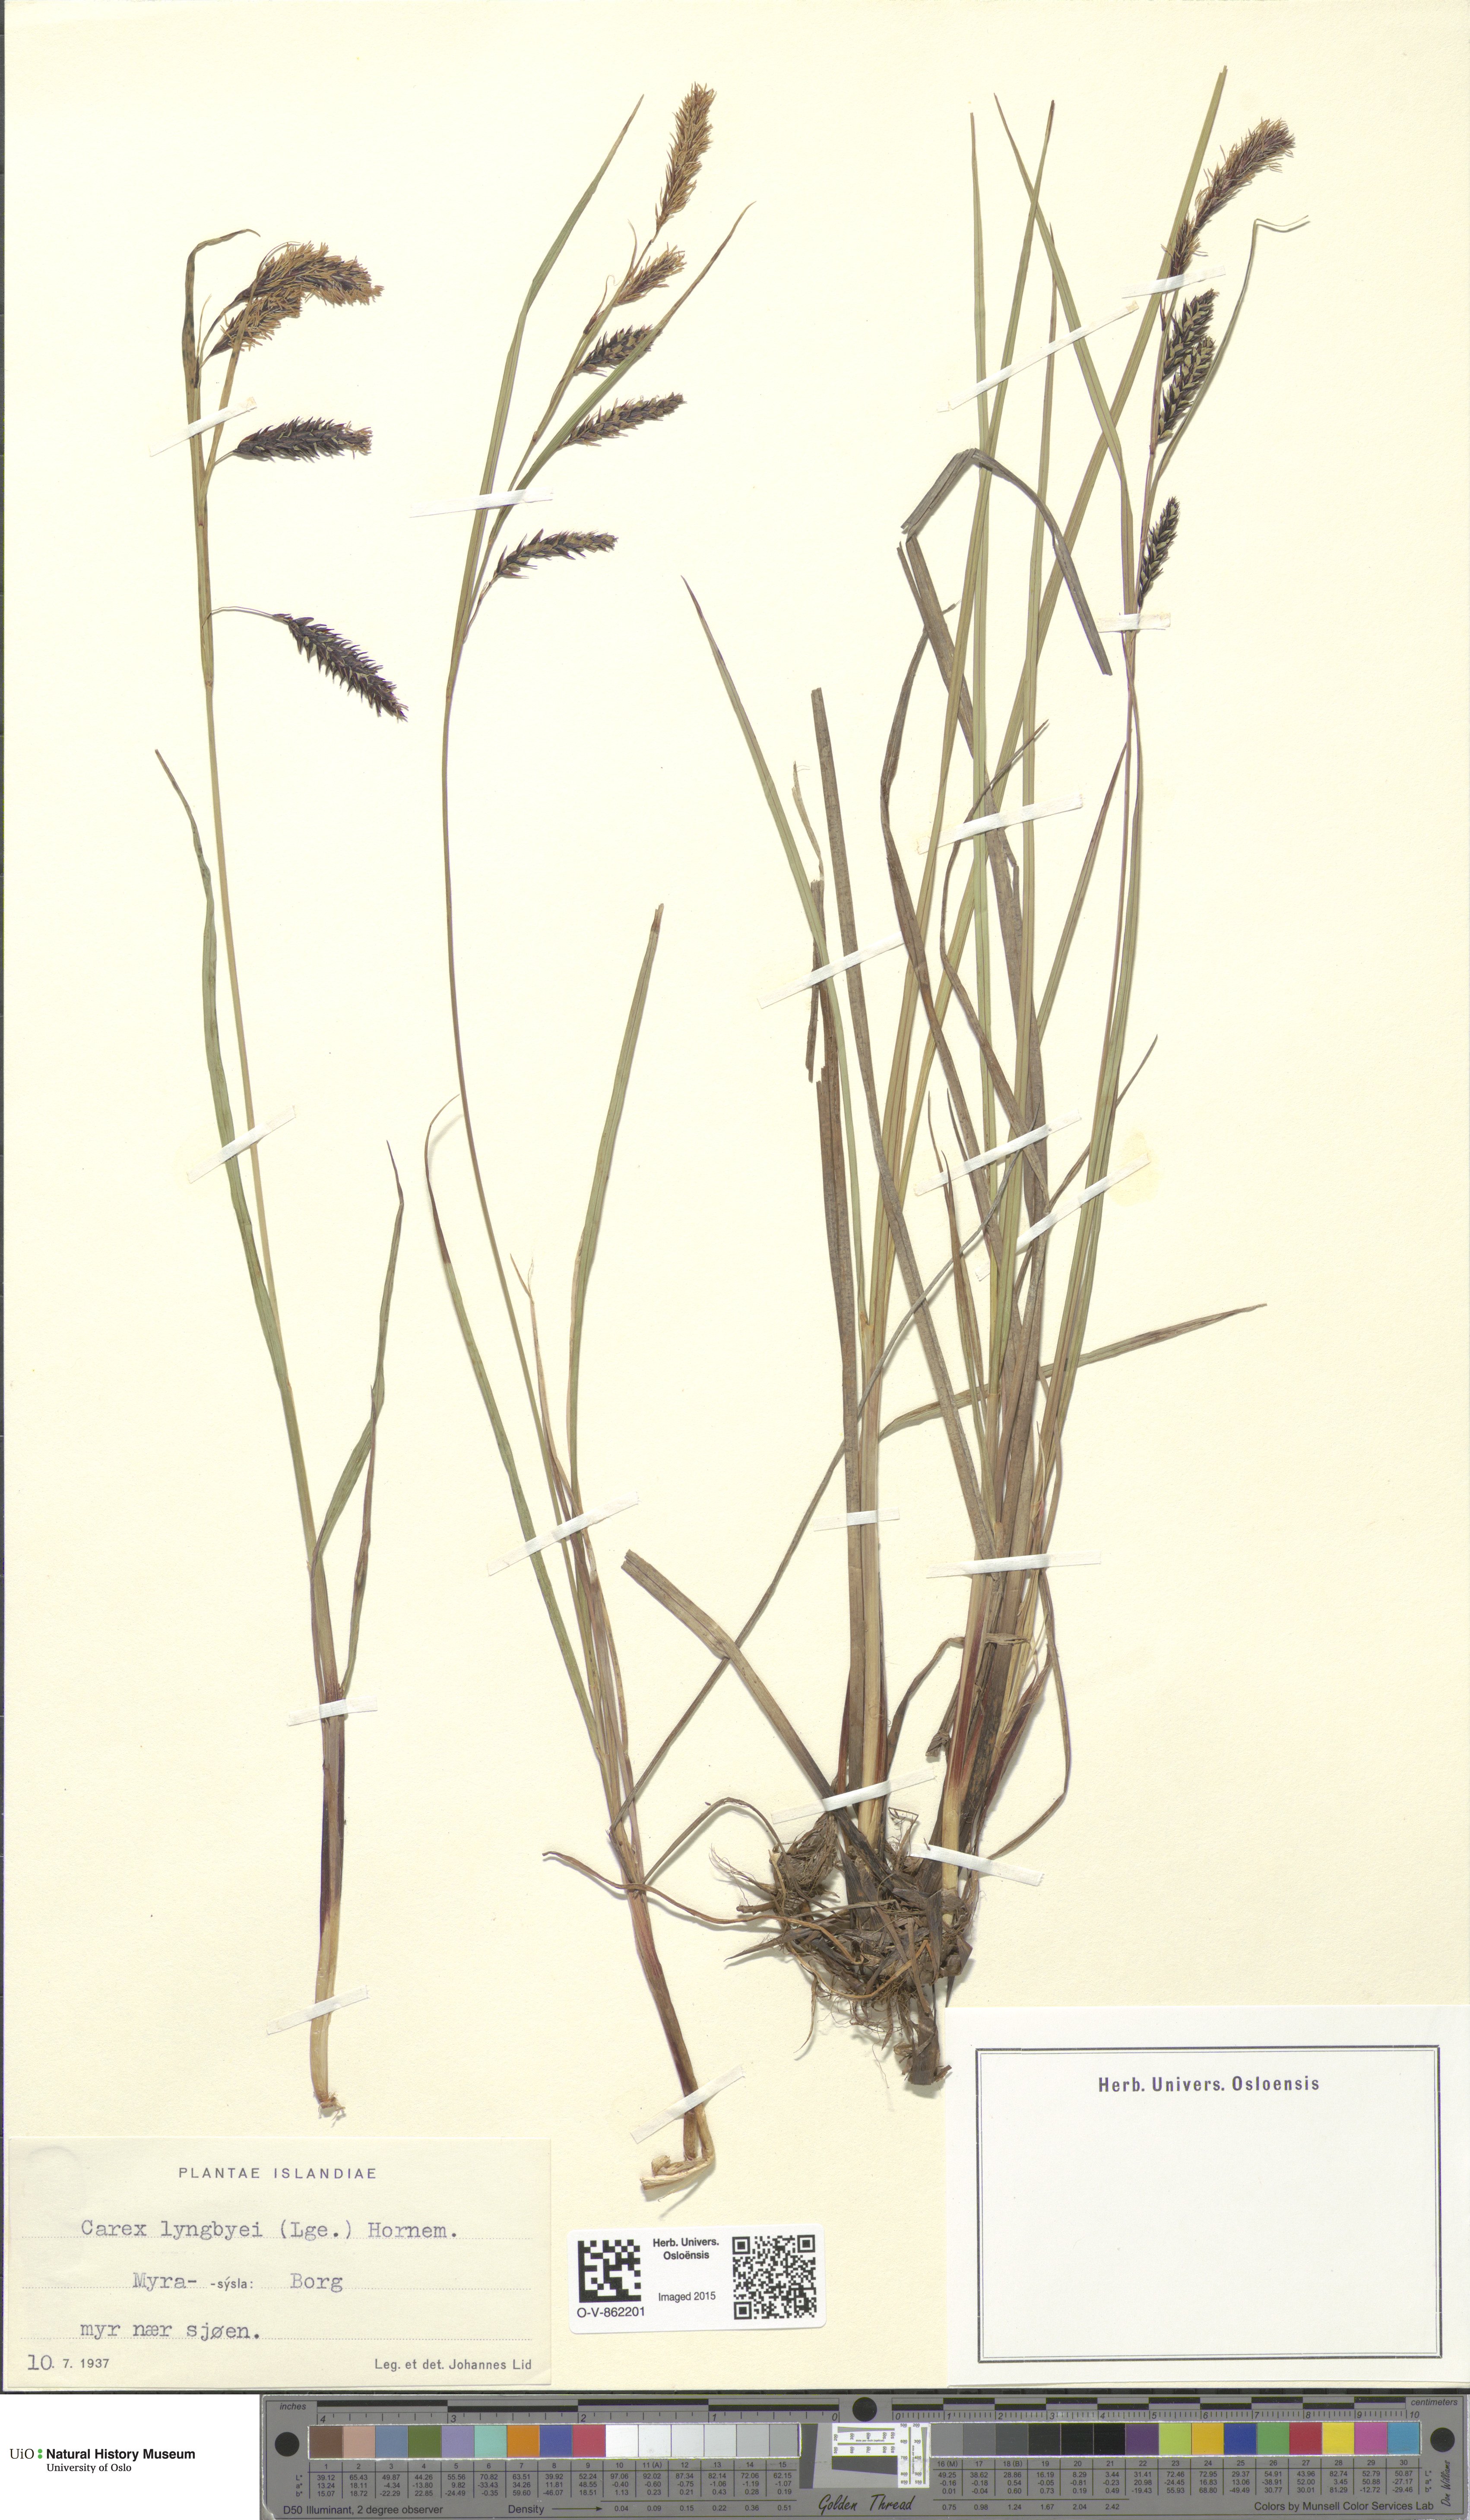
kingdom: Plantae
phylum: Tracheophyta
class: Liliopsida
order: Poales
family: Cyperaceae
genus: Carex
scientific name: Carex lyngbyei
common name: Lyngbye's sedge
